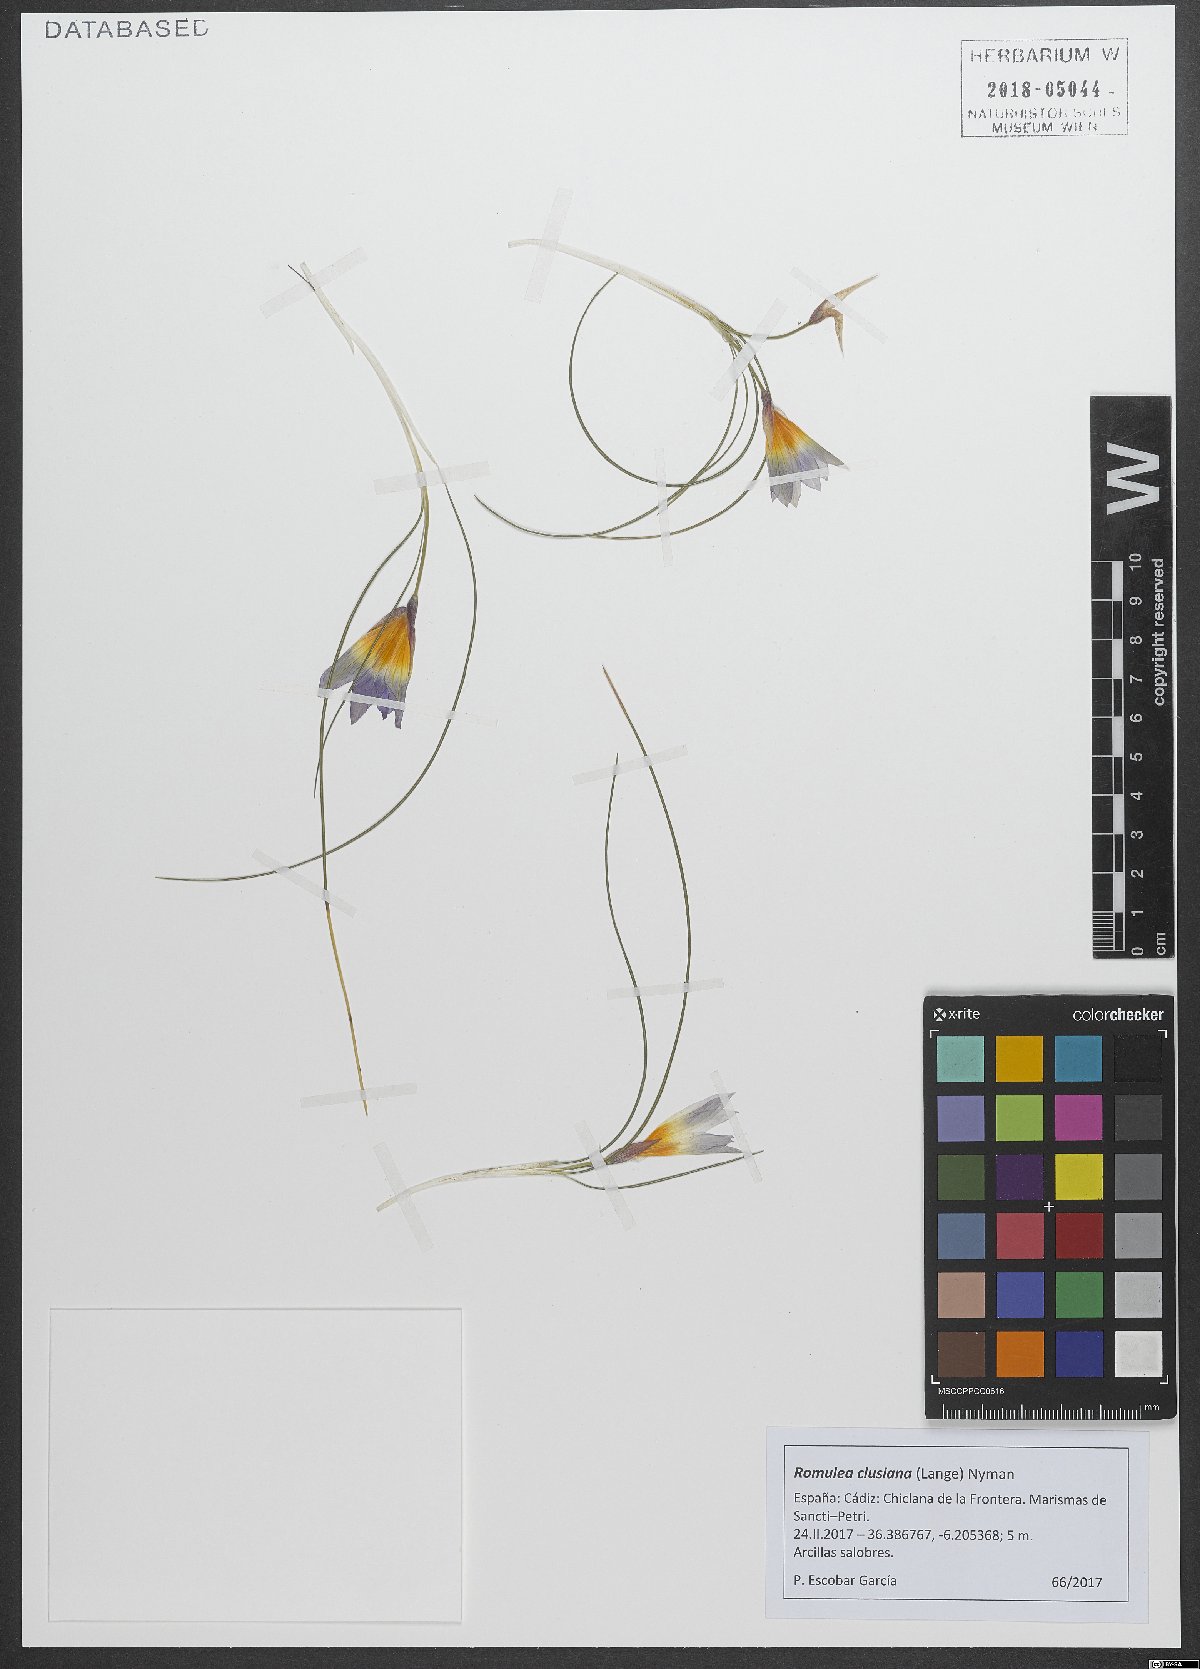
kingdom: Plantae
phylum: Tracheophyta
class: Liliopsida
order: Asparagales
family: Iridaceae
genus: Romulea
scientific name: Romulea clusiana
